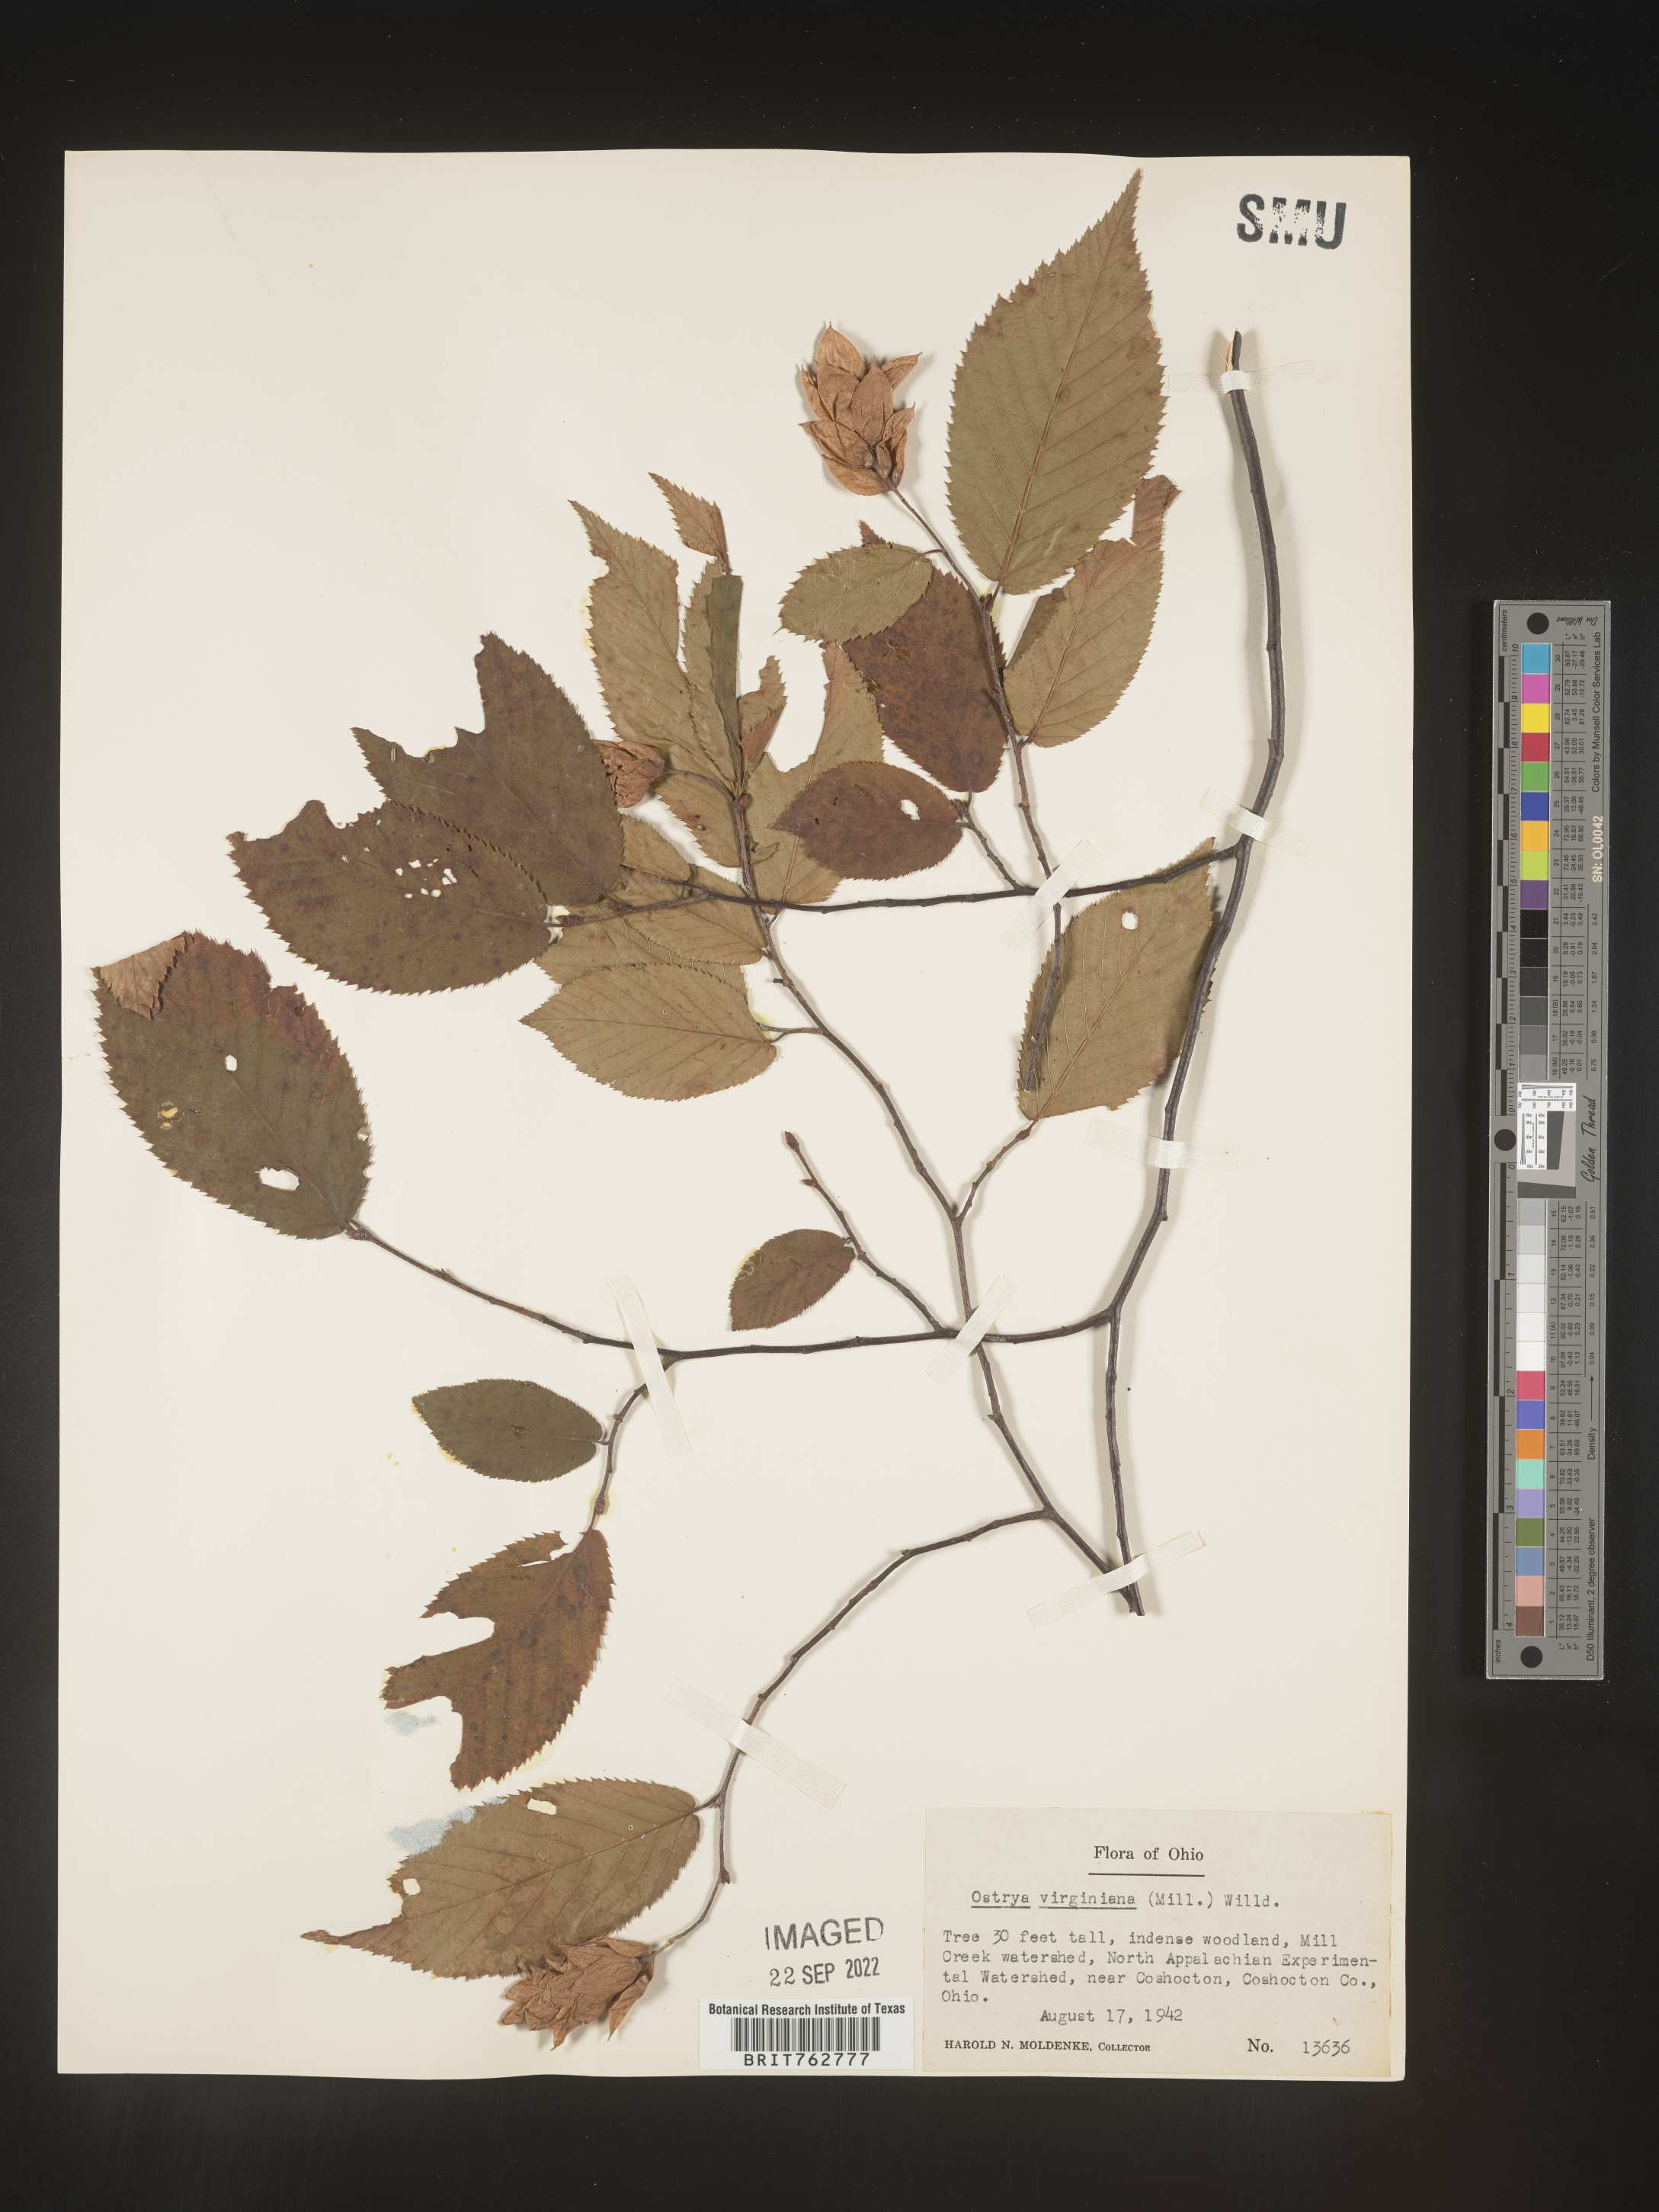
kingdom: Plantae
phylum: Tracheophyta
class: Magnoliopsida
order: Fagales
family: Betulaceae
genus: Ostrya
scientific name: Ostrya virginiana
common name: Ironwood
